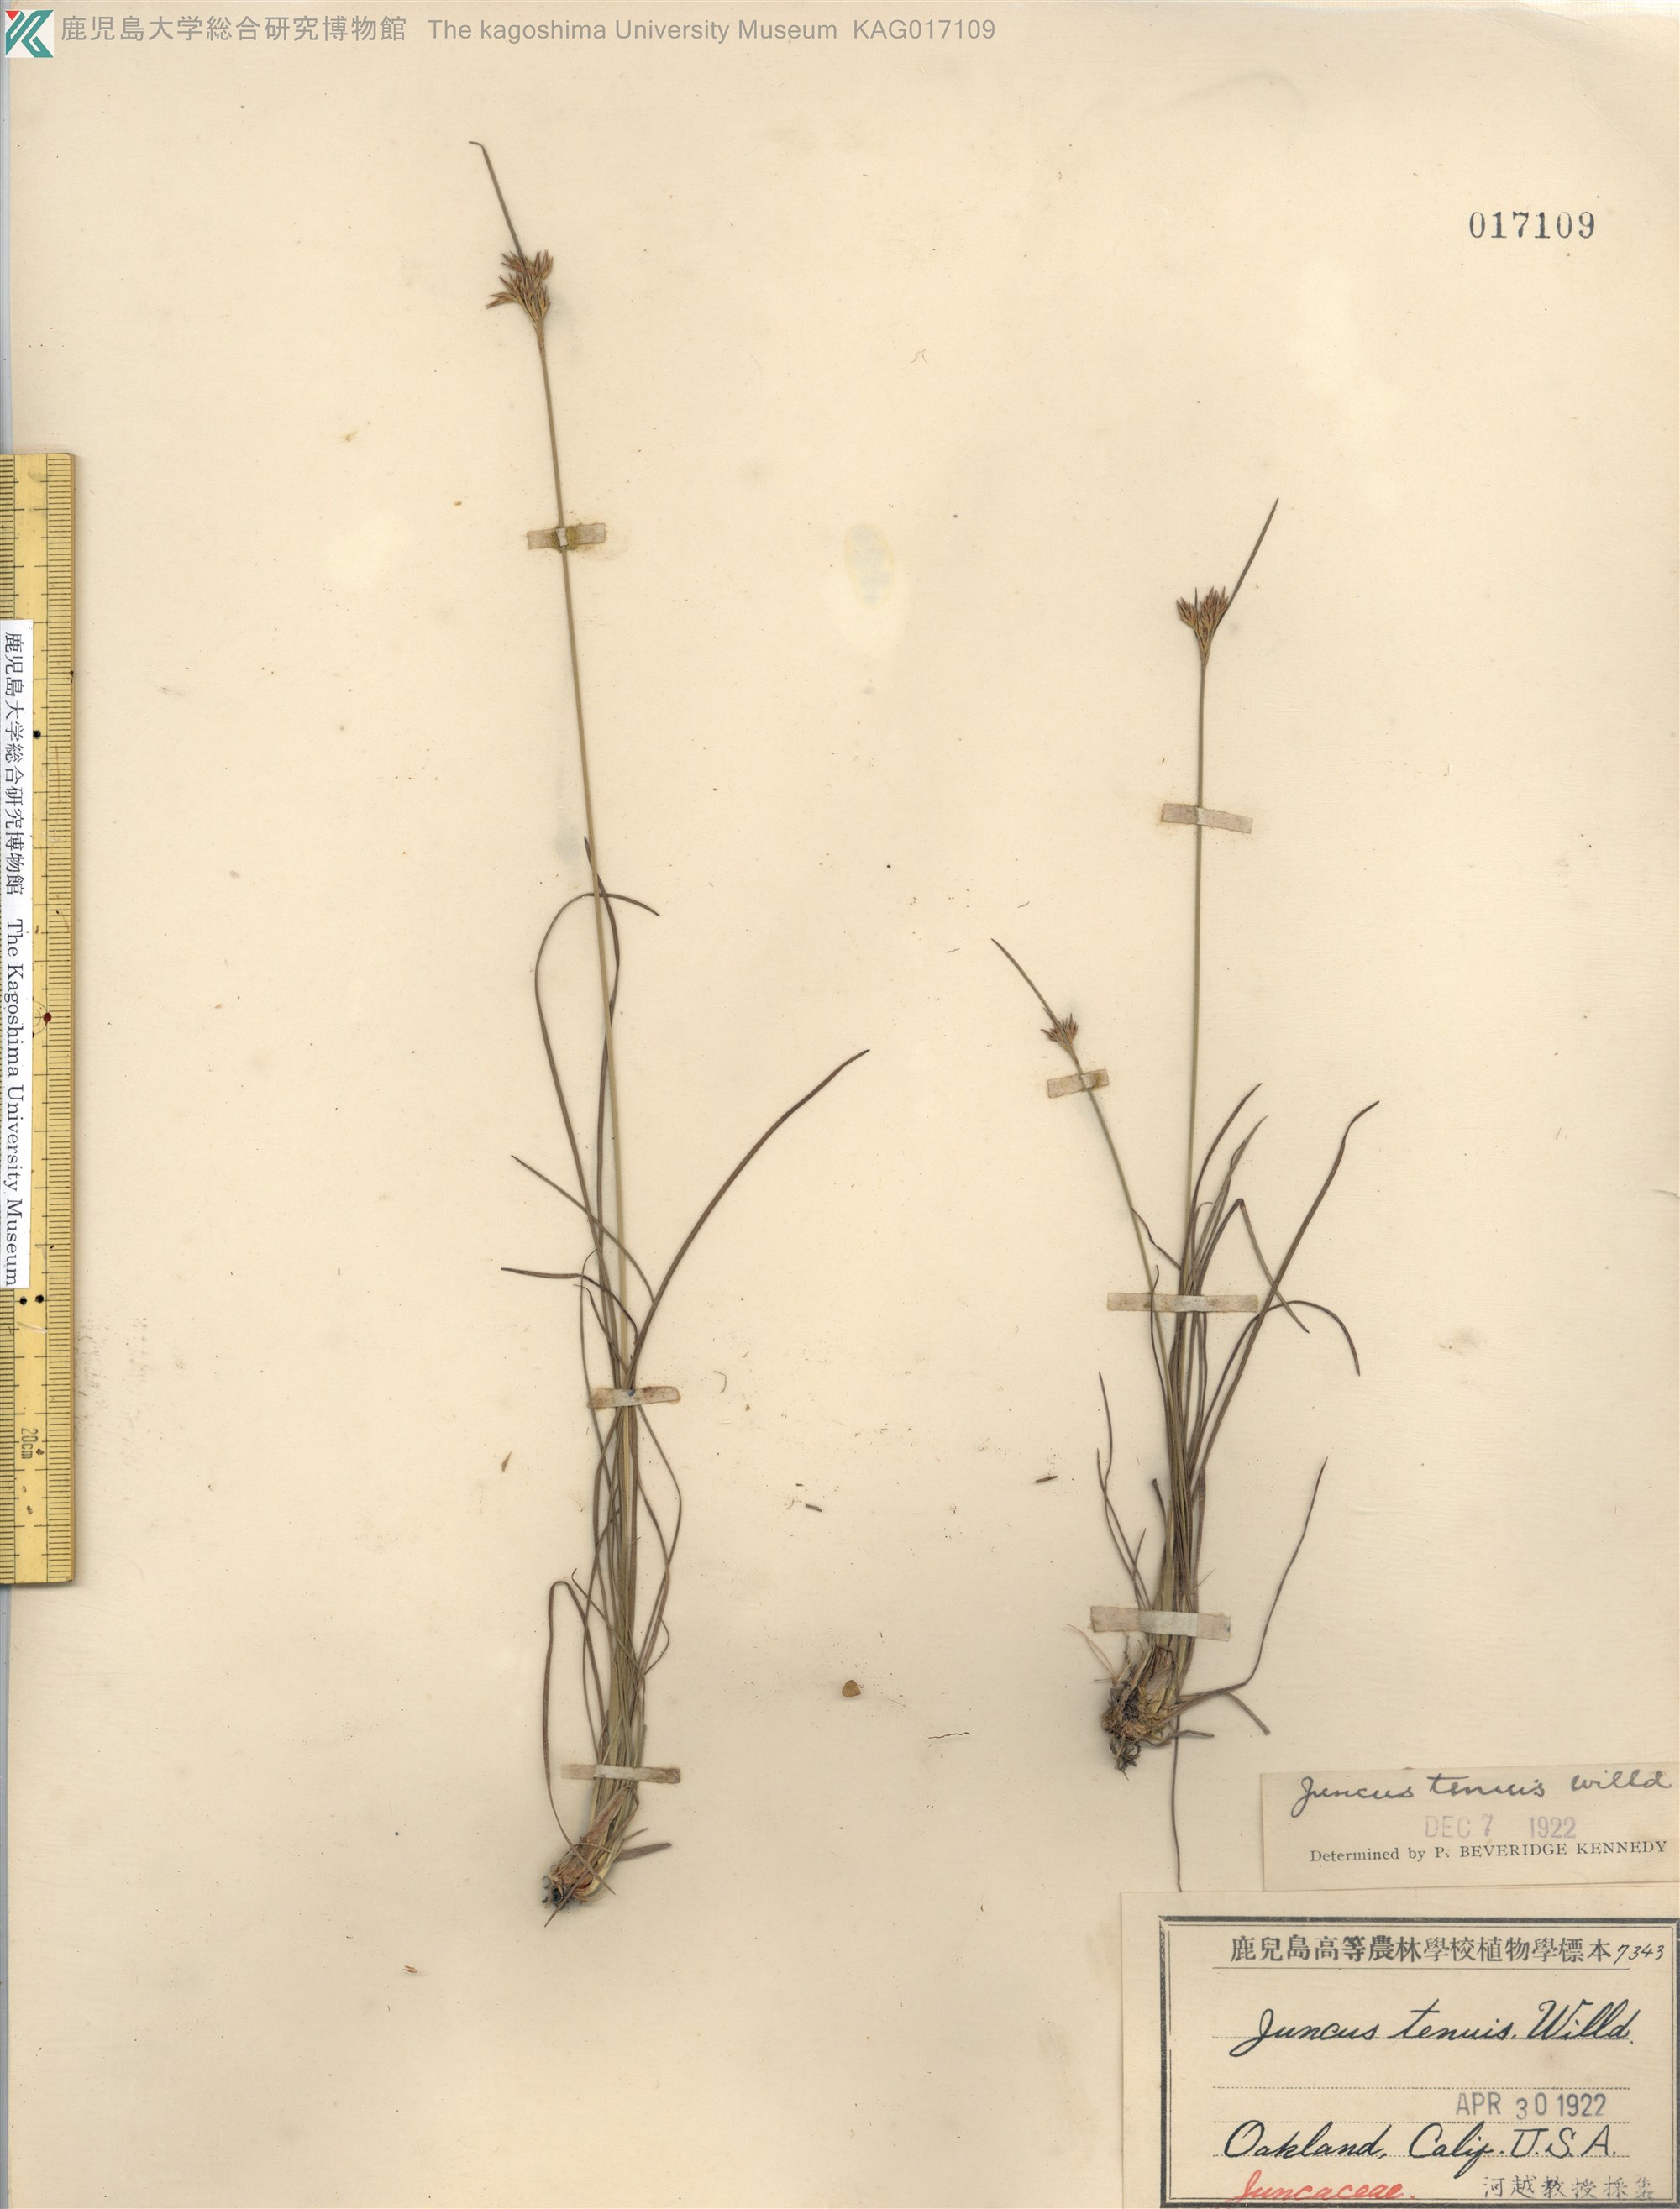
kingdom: Plantae
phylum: Tracheophyta
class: Liliopsida
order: Poales
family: Juncaceae
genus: Juncus
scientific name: Juncus tenuis
